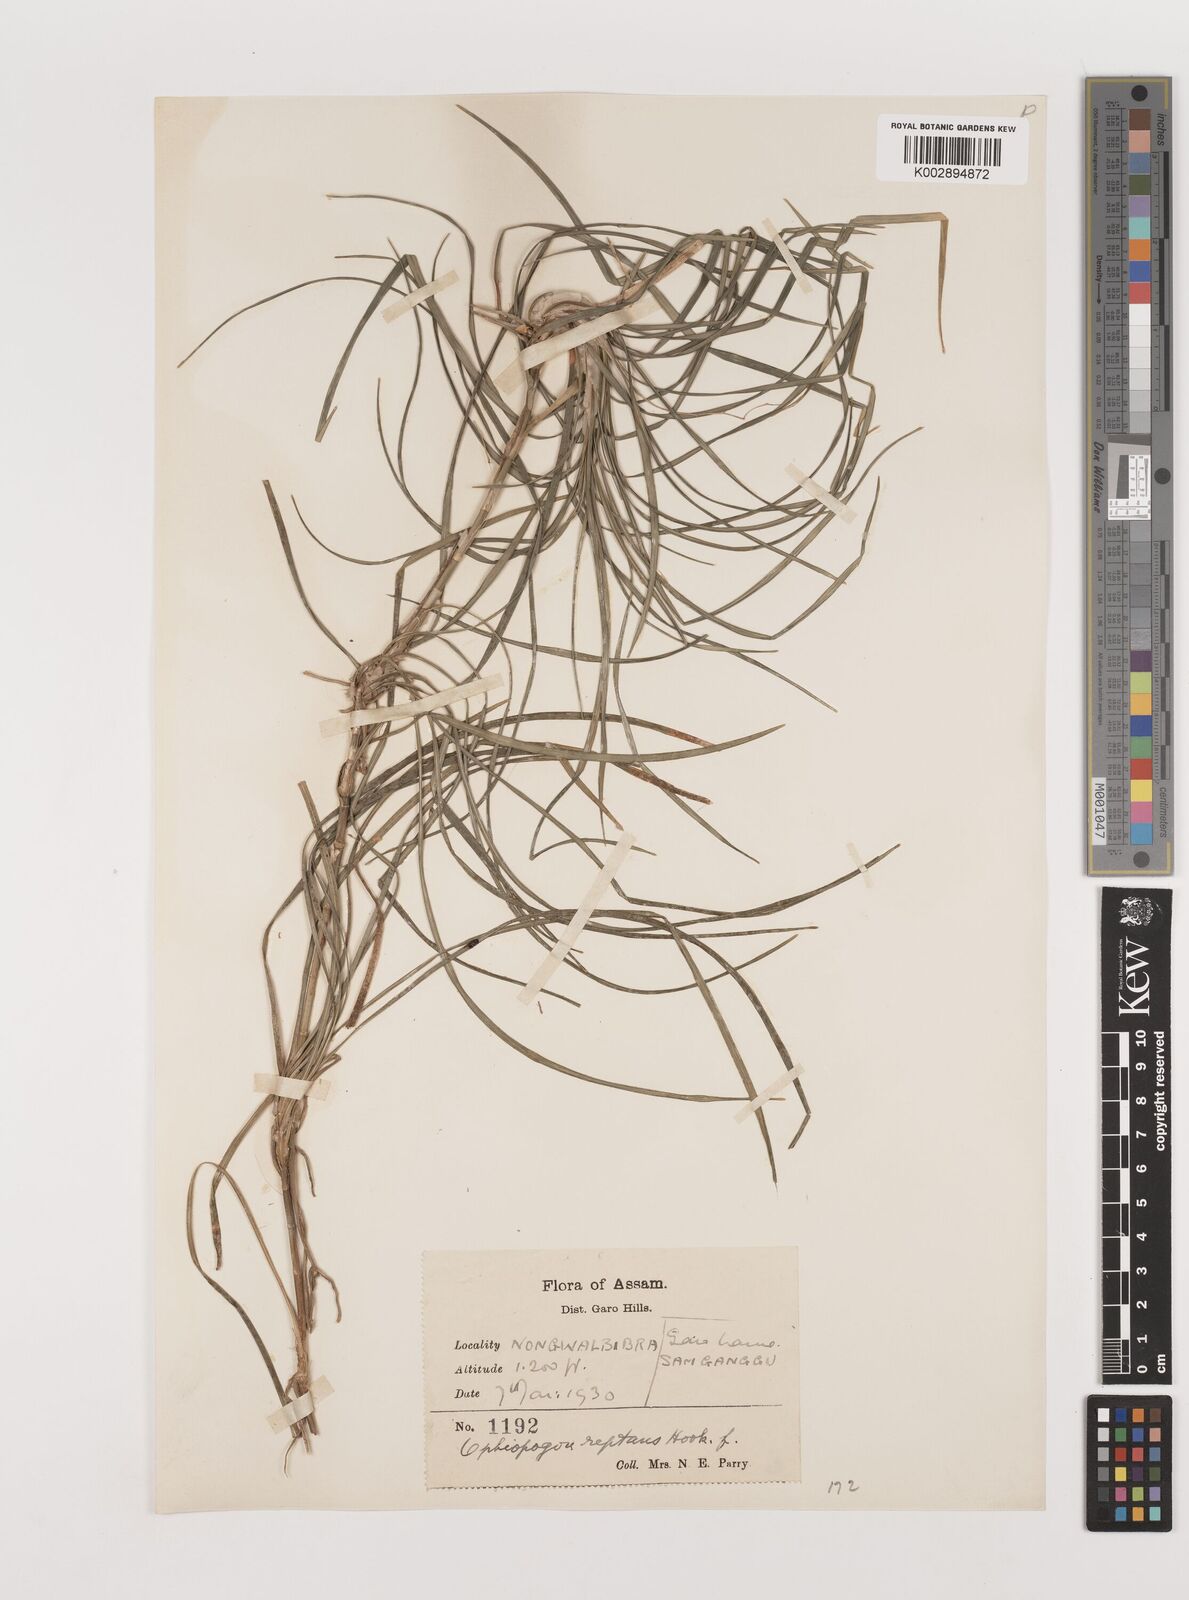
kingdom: Plantae
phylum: Tracheophyta
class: Liliopsida
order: Asparagales
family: Asparagaceae
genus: Ophiopogon
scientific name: Ophiopogon reptans
